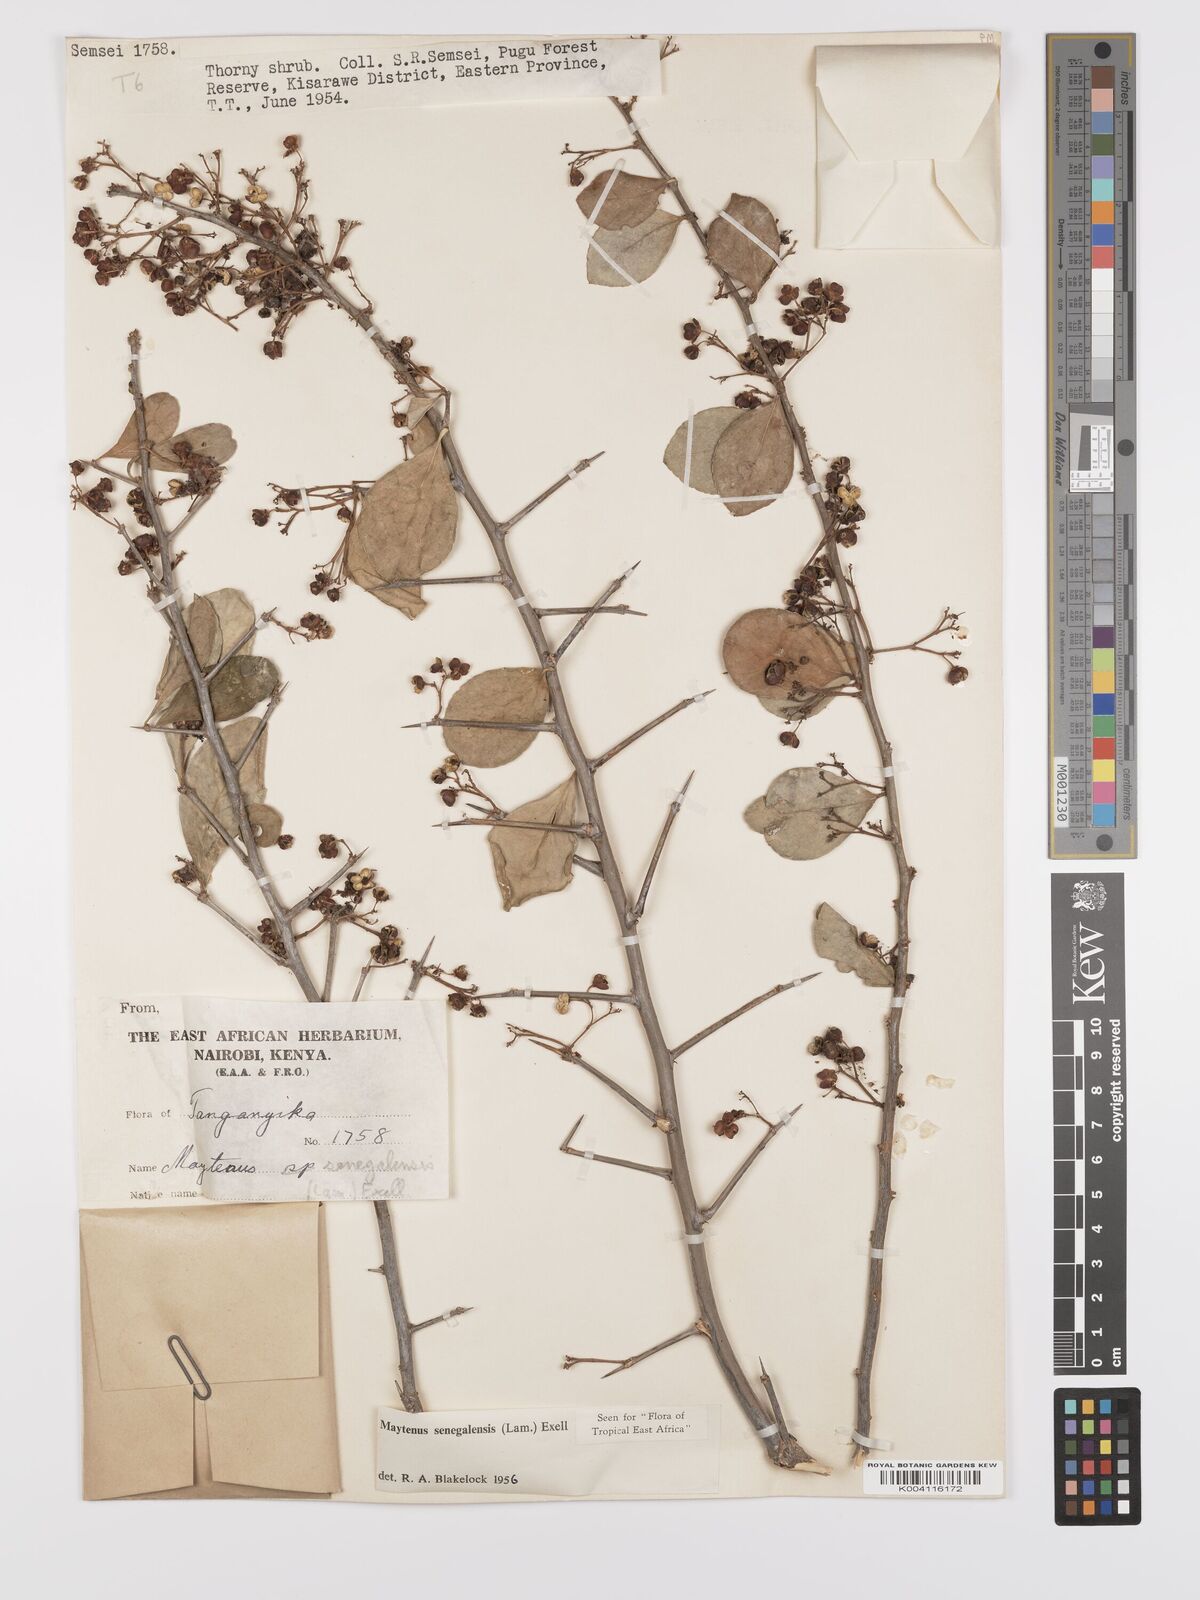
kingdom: Plantae
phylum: Tracheophyta
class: Magnoliopsida
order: Celastrales
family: Celastraceae
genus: Gymnosporia
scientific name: Gymnosporia heterophylla
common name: Angle-stem spikethorn
